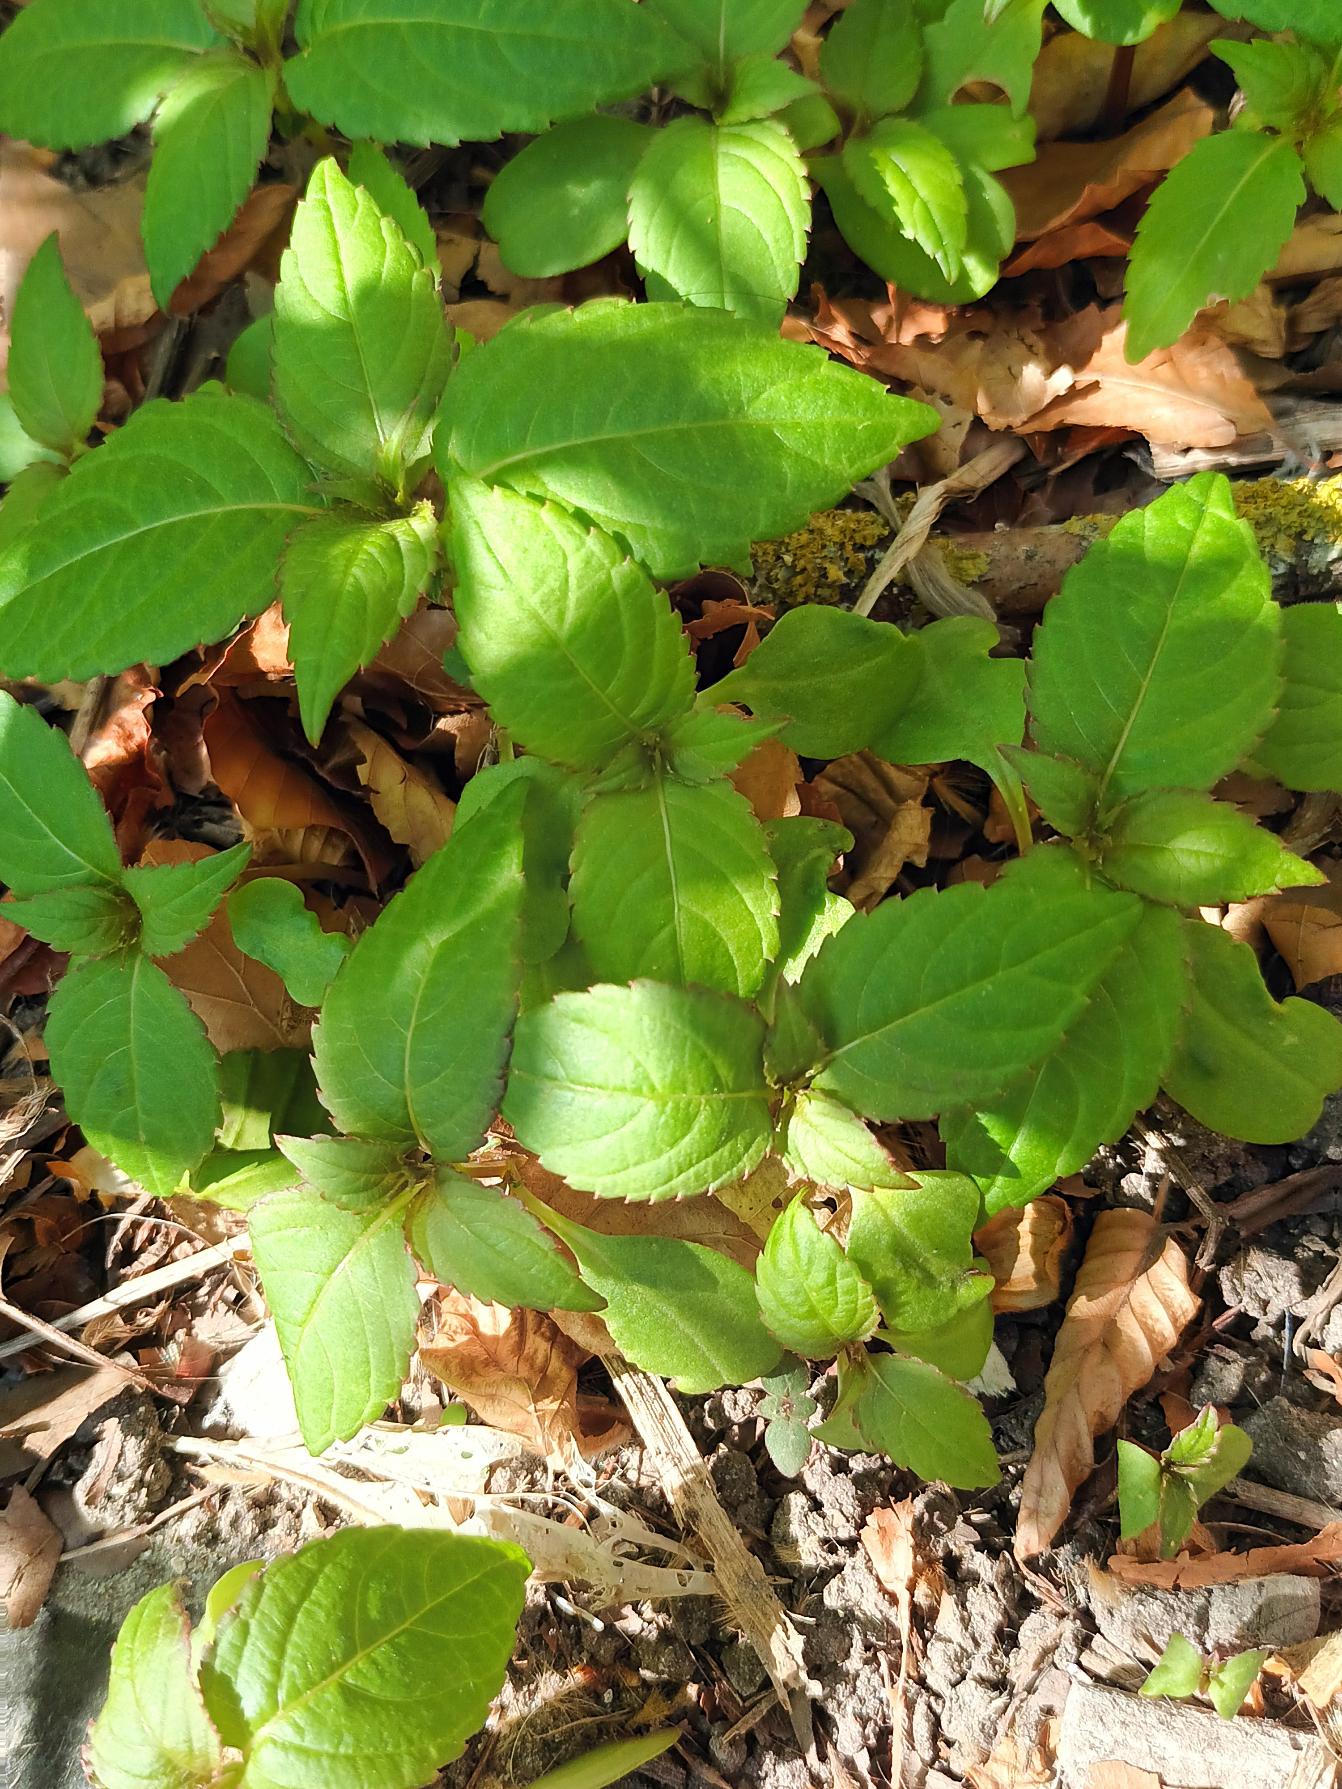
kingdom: Plantae
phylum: Tracheophyta
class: Magnoliopsida
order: Ericales
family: Balsaminaceae
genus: Impatiens
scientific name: Impatiens parviflora
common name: Småblomstret balsamin
